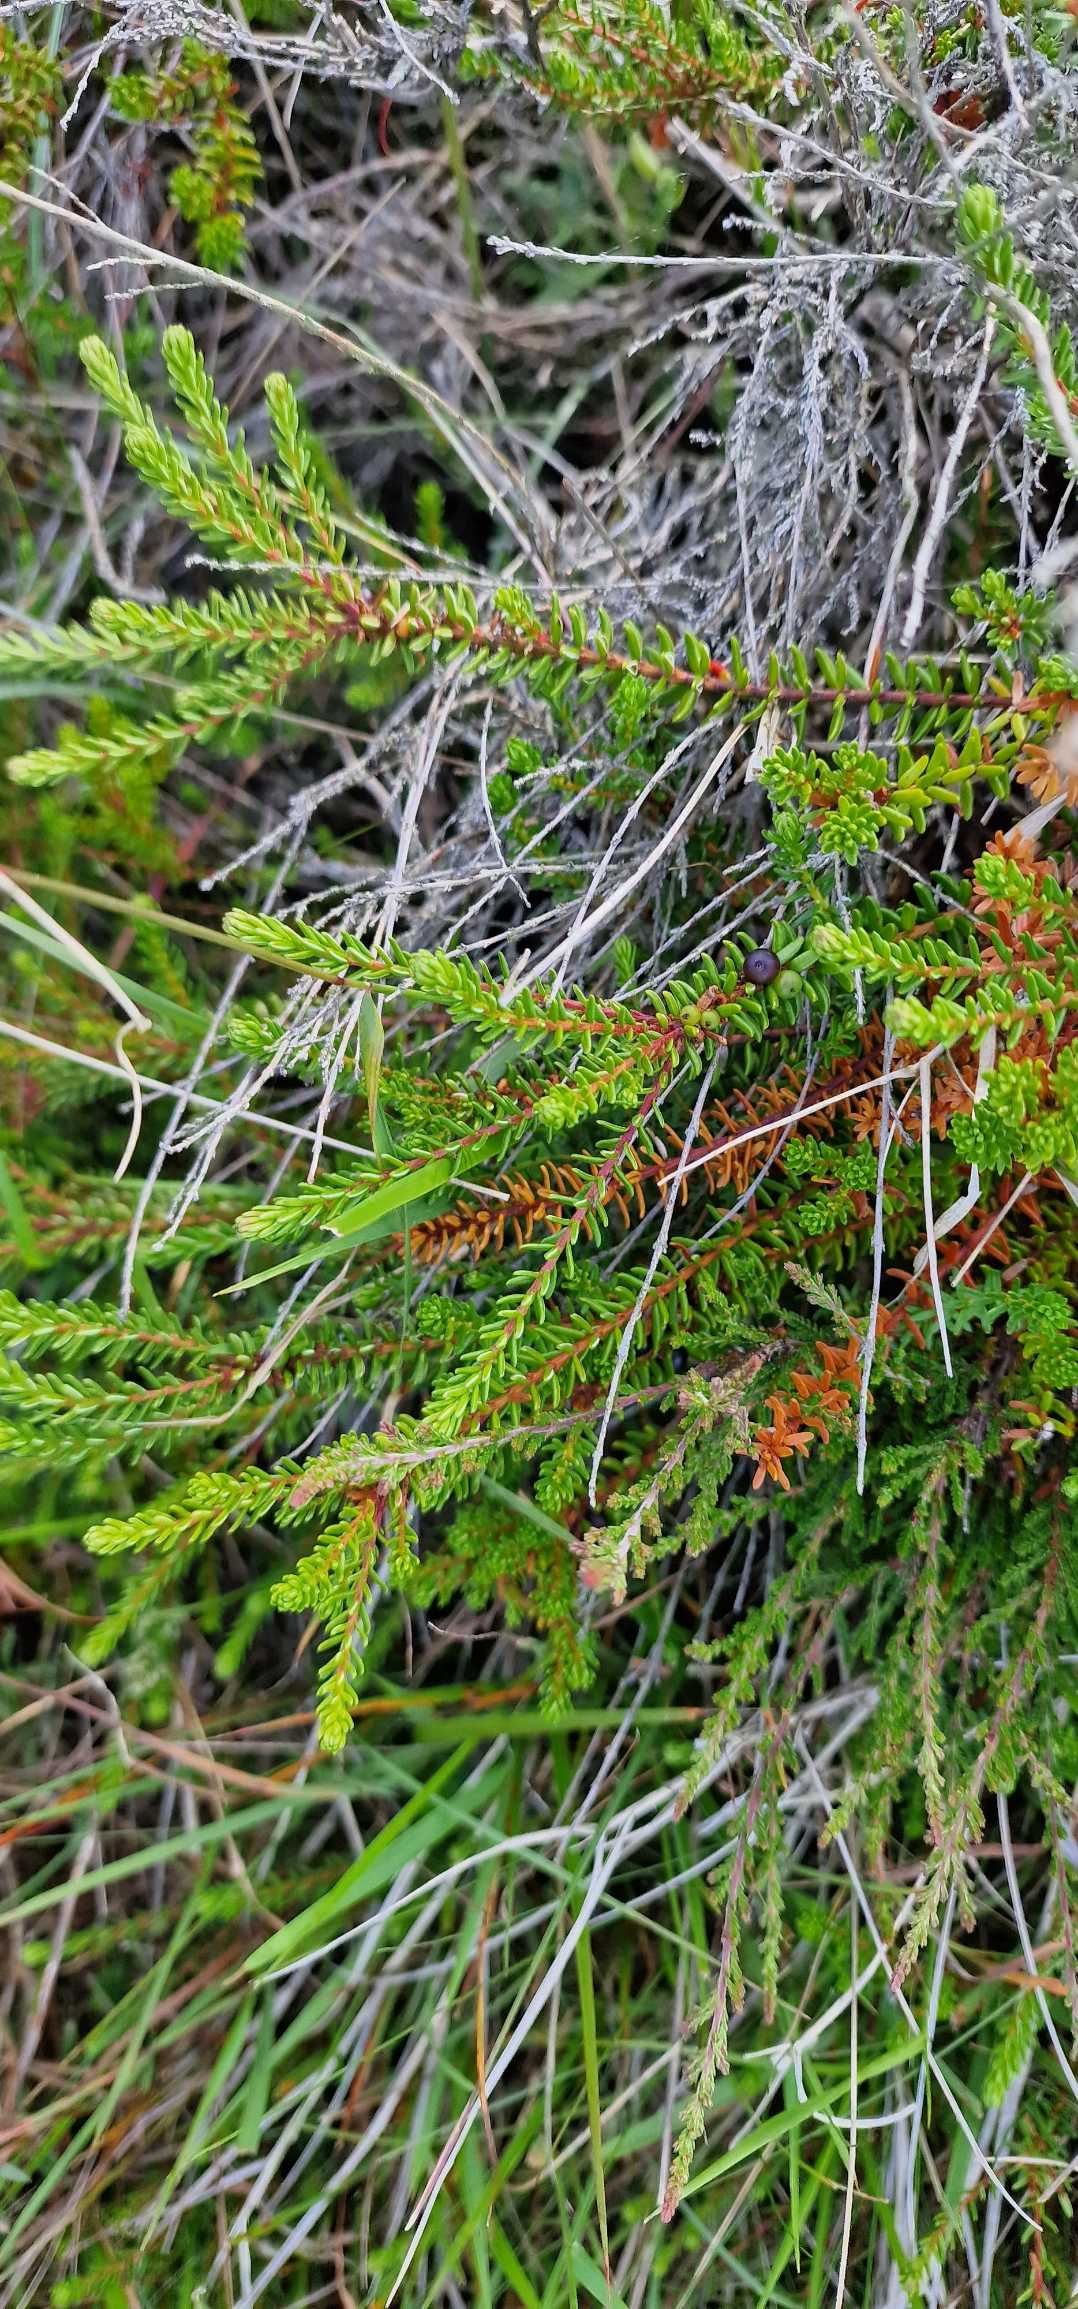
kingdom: Plantae
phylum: Tracheophyta
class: Magnoliopsida
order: Ericales
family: Ericaceae
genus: Empetrum
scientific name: Empetrum nigrum
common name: Revling
